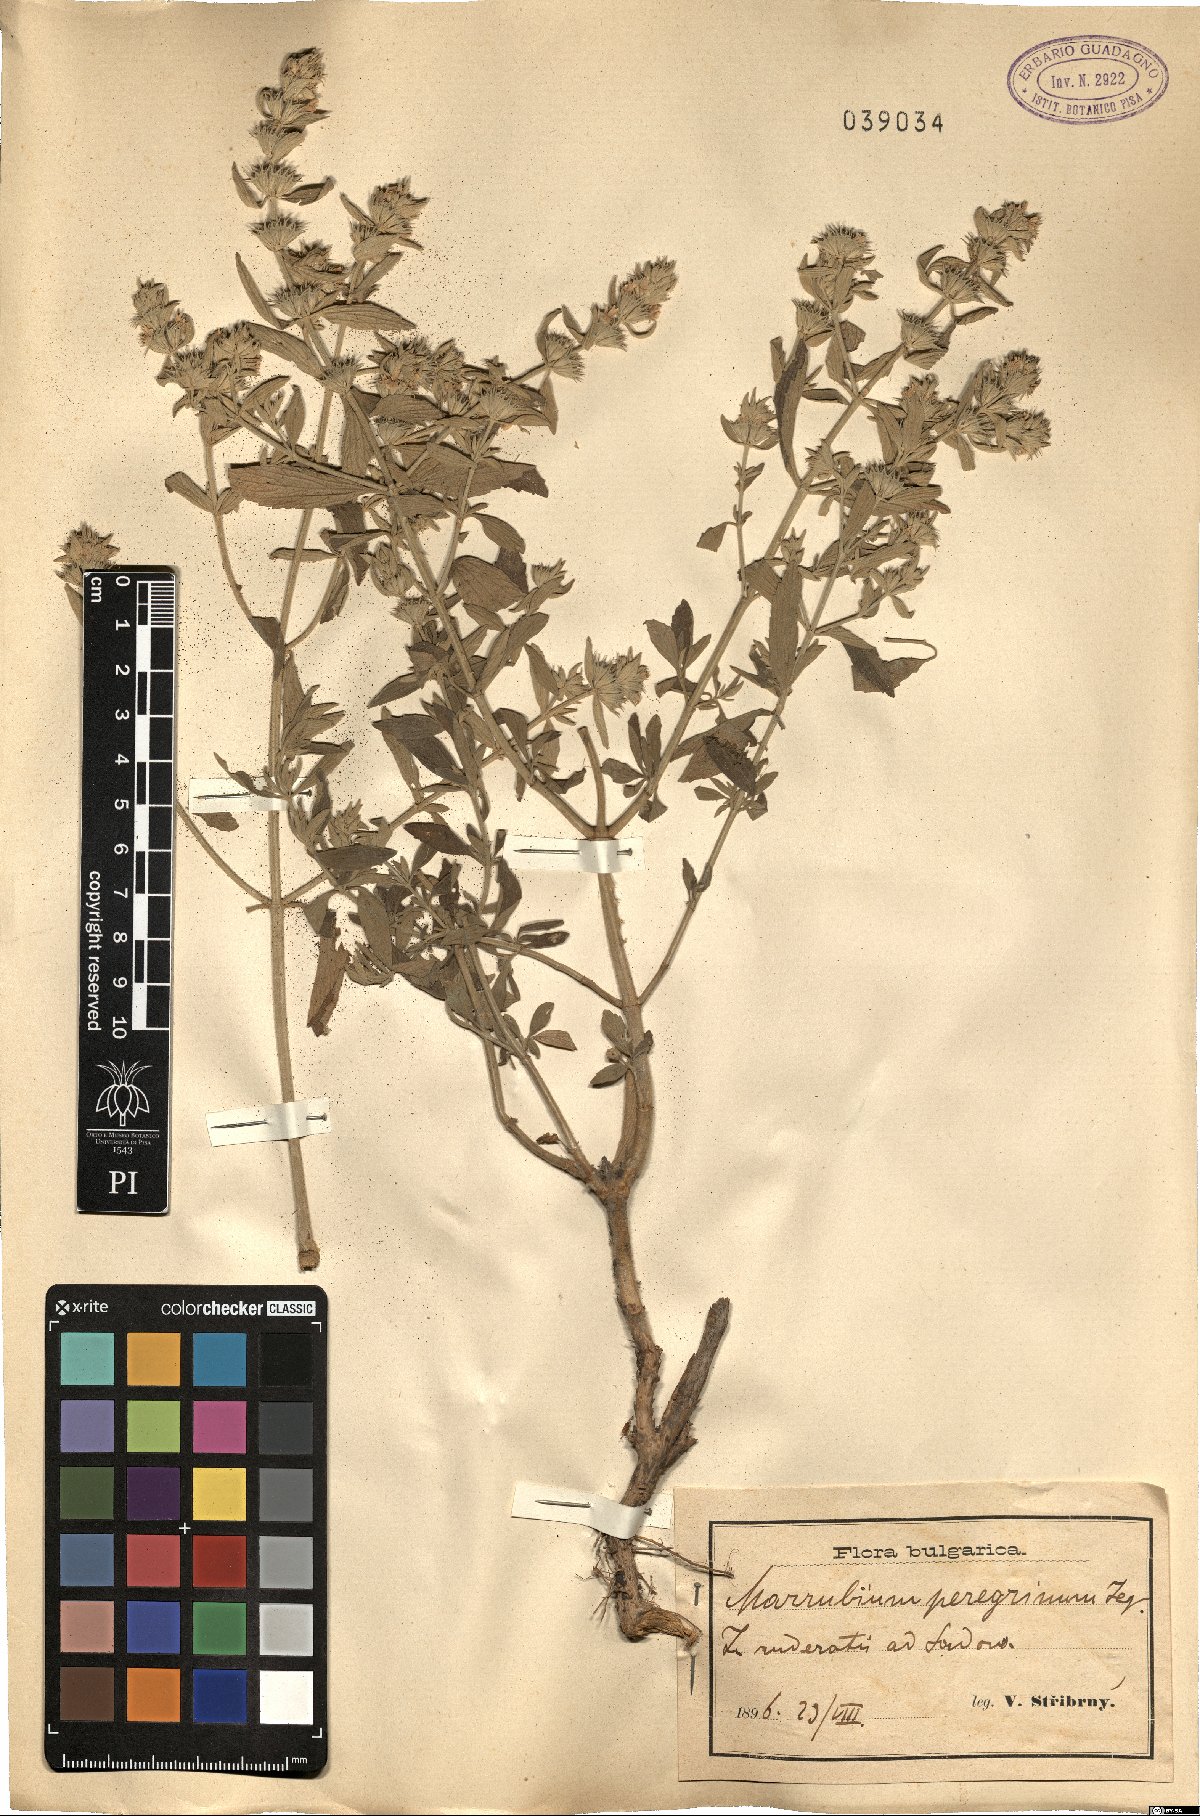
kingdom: Plantae
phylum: Tracheophyta
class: Magnoliopsida
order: Lamiales
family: Lamiaceae
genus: Marrubium
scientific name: Marrubium peregrinum
